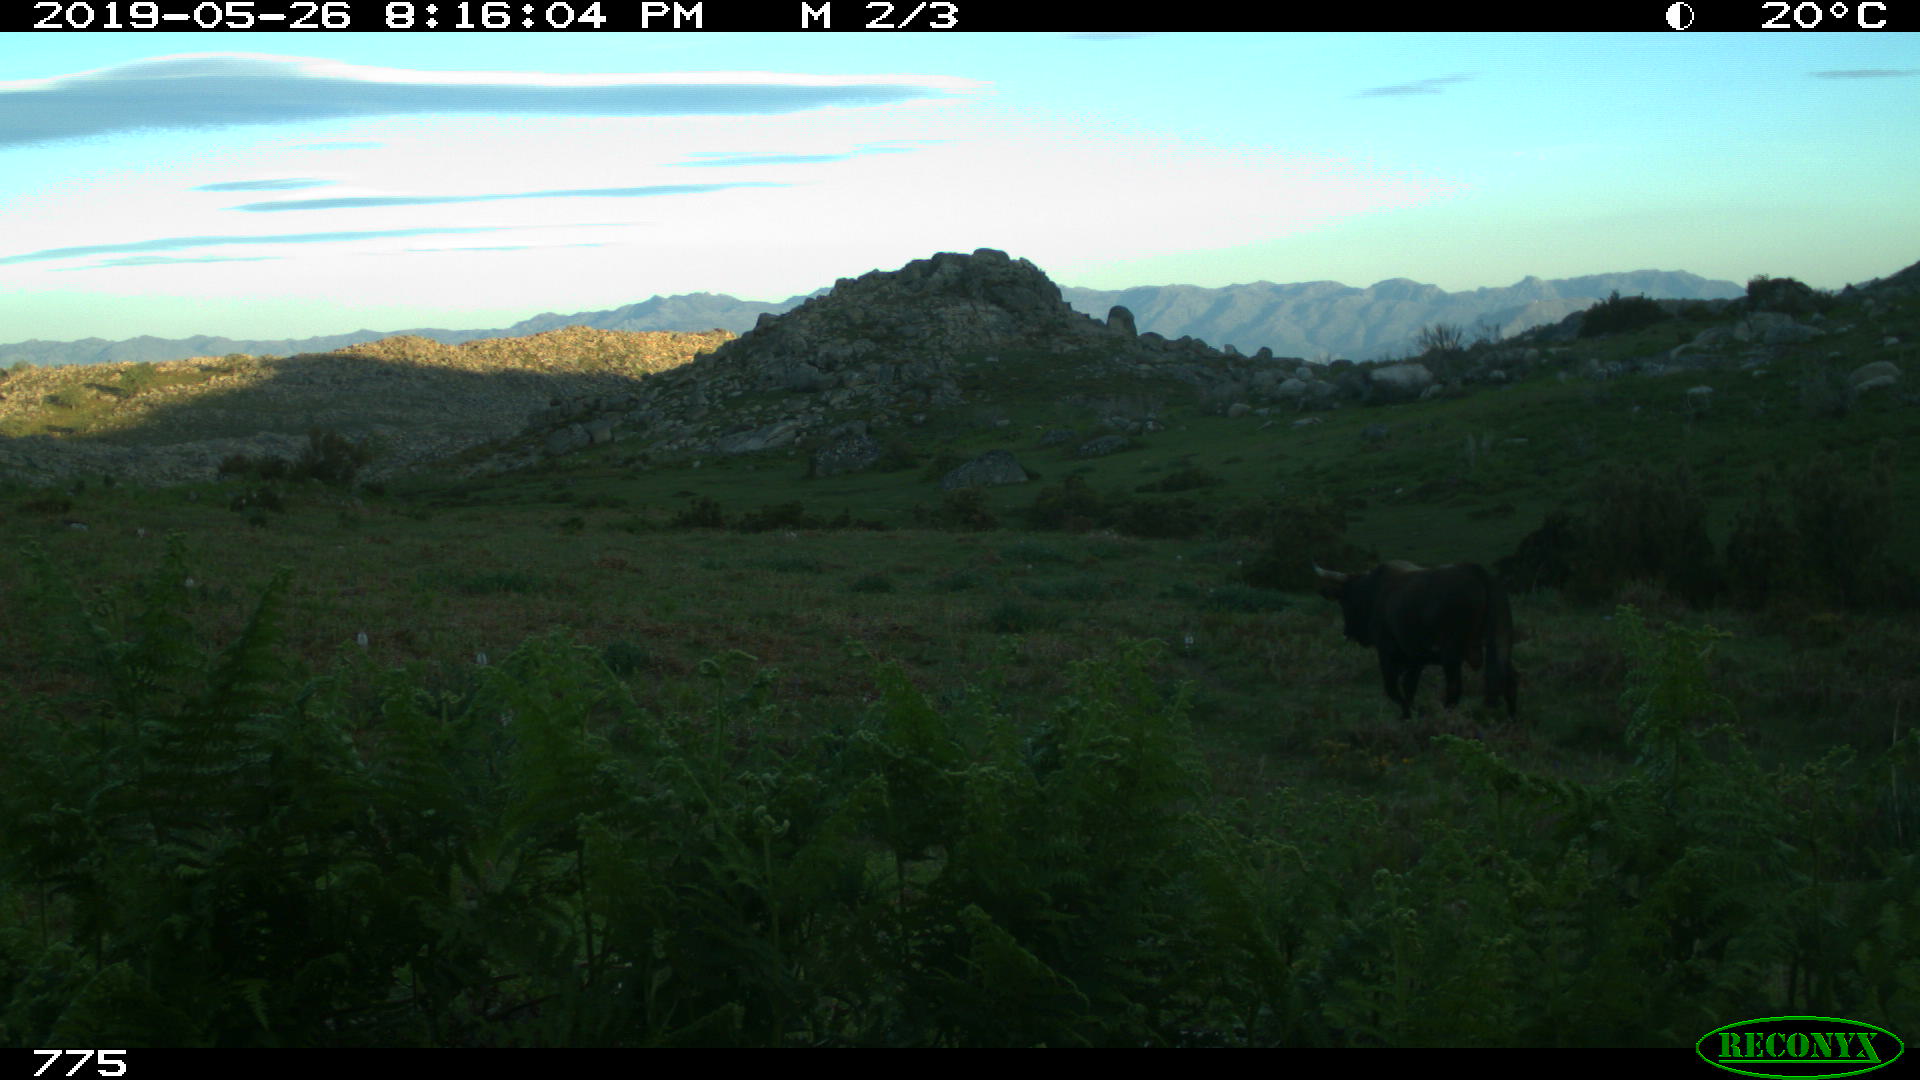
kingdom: Animalia
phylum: Chordata
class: Mammalia
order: Artiodactyla
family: Bovidae
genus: Bos
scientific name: Bos taurus
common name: Domesticated cattle
